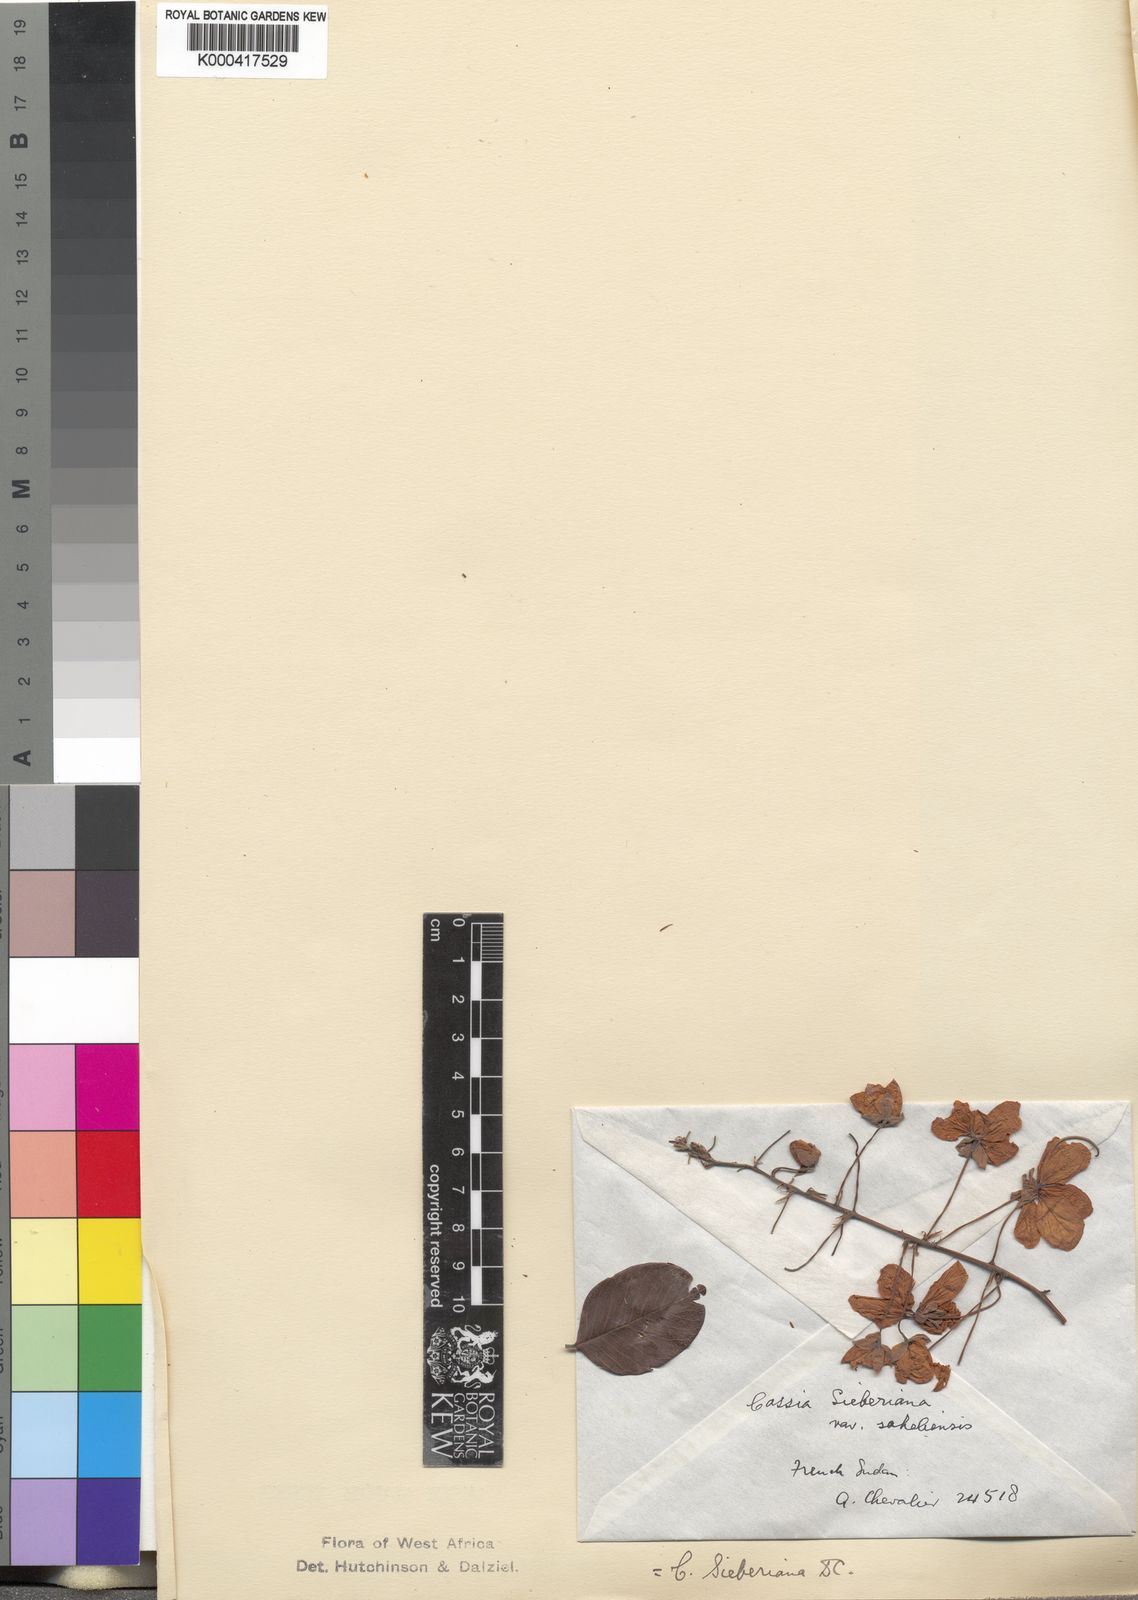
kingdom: Plantae
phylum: Tracheophyta
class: Magnoliopsida
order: Fabales
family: Fabaceae
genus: Cassia
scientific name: Cassia sieberiana
